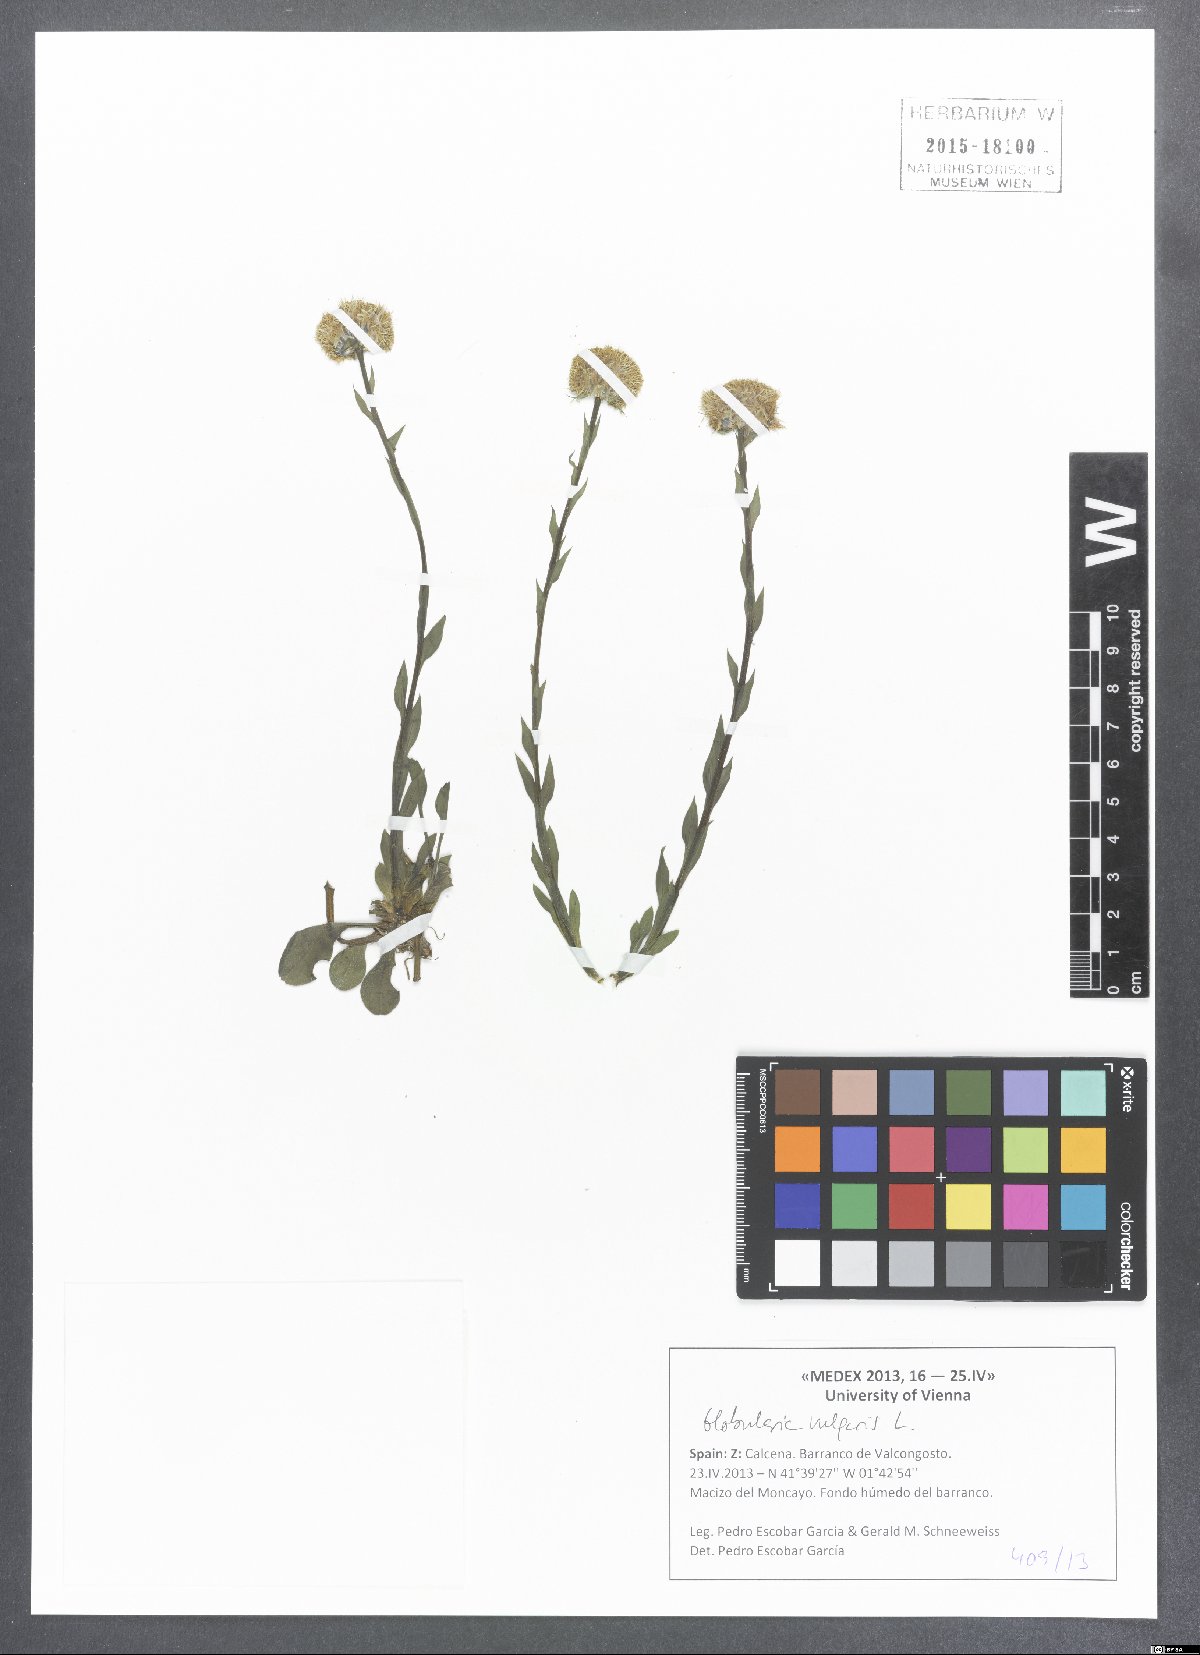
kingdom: Plantae
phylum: Tracheophyta
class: Magnoliopsida
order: Lamiales
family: Plantaginaceae
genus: Globularia
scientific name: Globularia vulgaris
